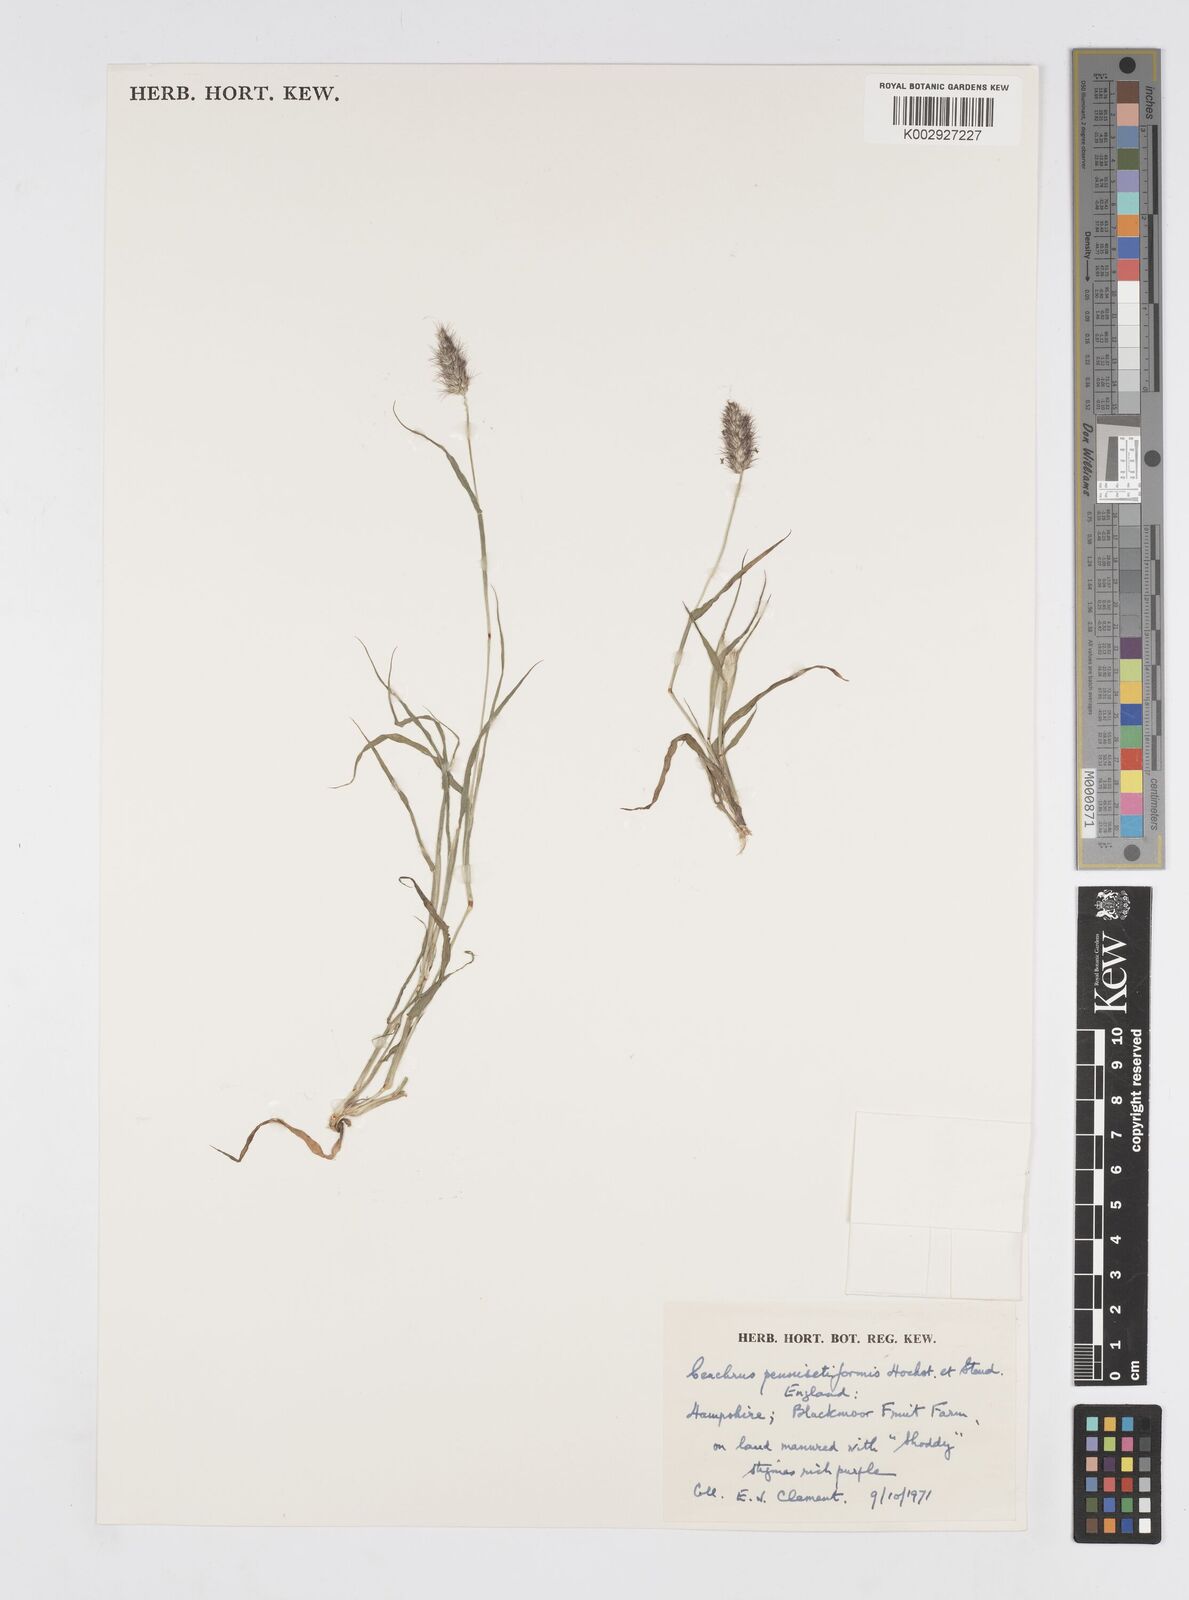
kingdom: Plantae
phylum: Tracheophyta
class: Liliopsida
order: Poales
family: Poaceae
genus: Cenchrus
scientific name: Cenchrus ciliaris
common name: Buffelgrass
